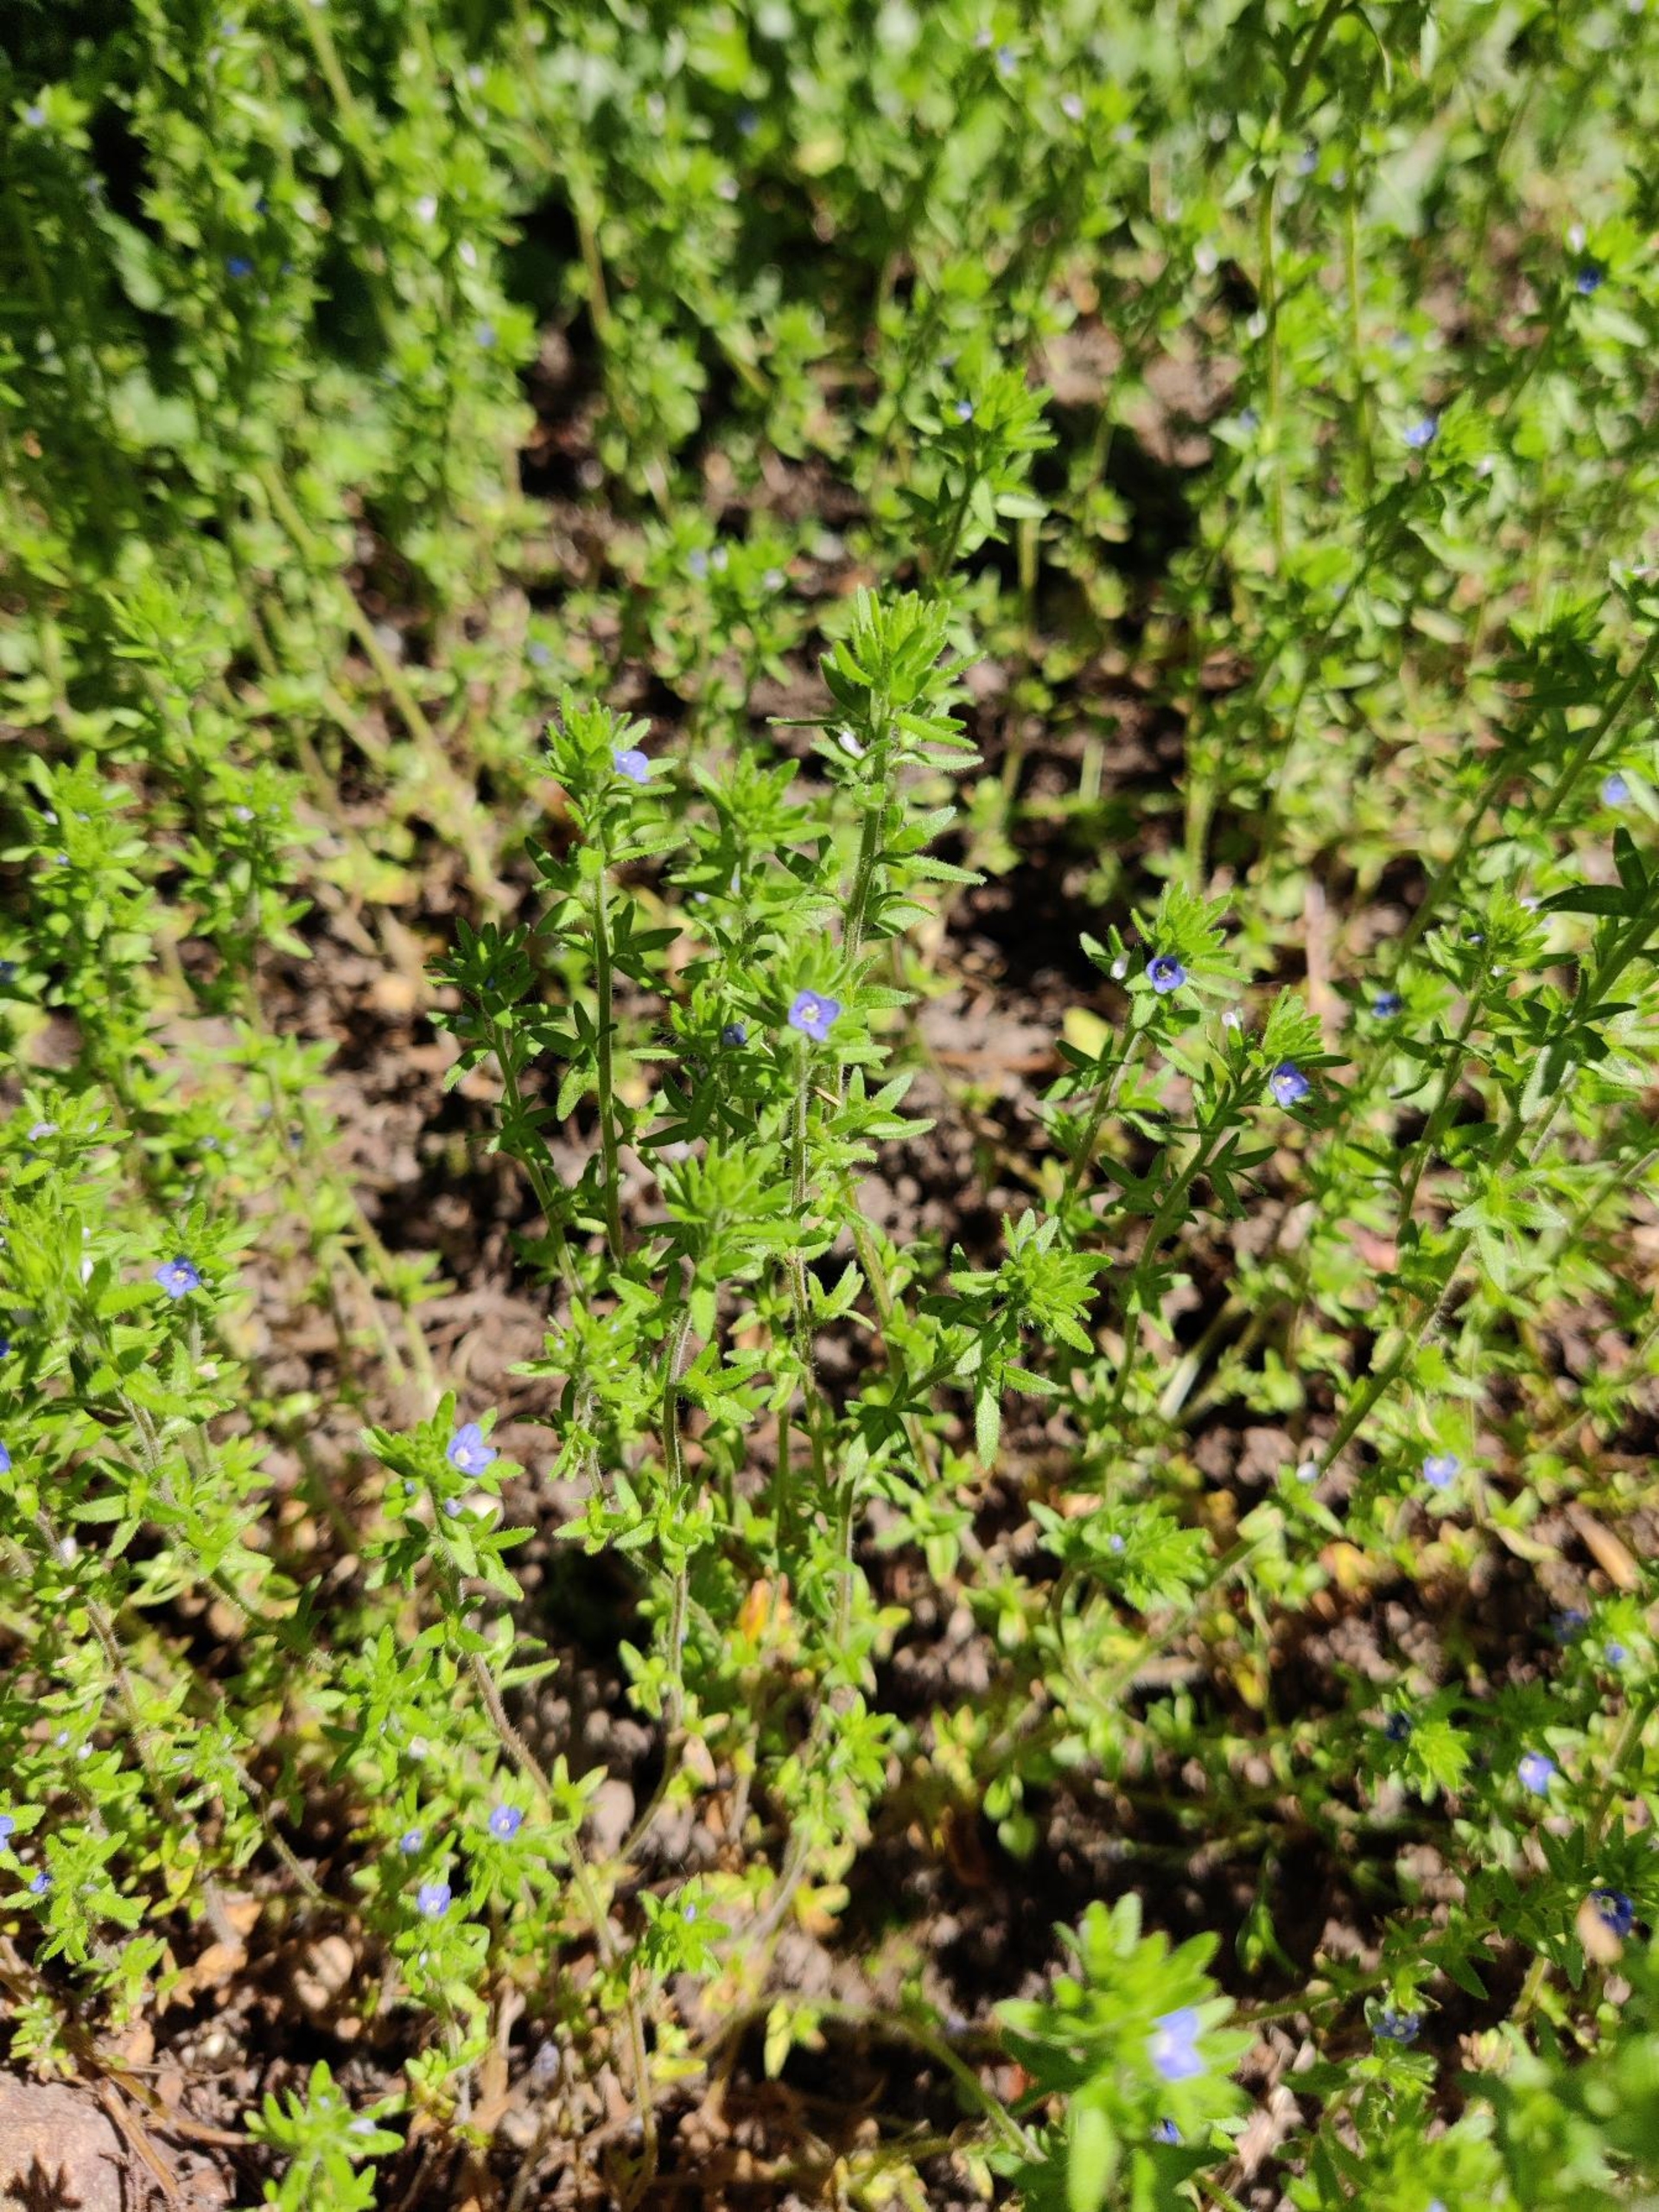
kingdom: Plantae
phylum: Tracheophyta
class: Magnoliopsida
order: Lamiales
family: Plantaginaceae
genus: Veronica
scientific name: Veronica arvensis
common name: Mark-ærenpris
